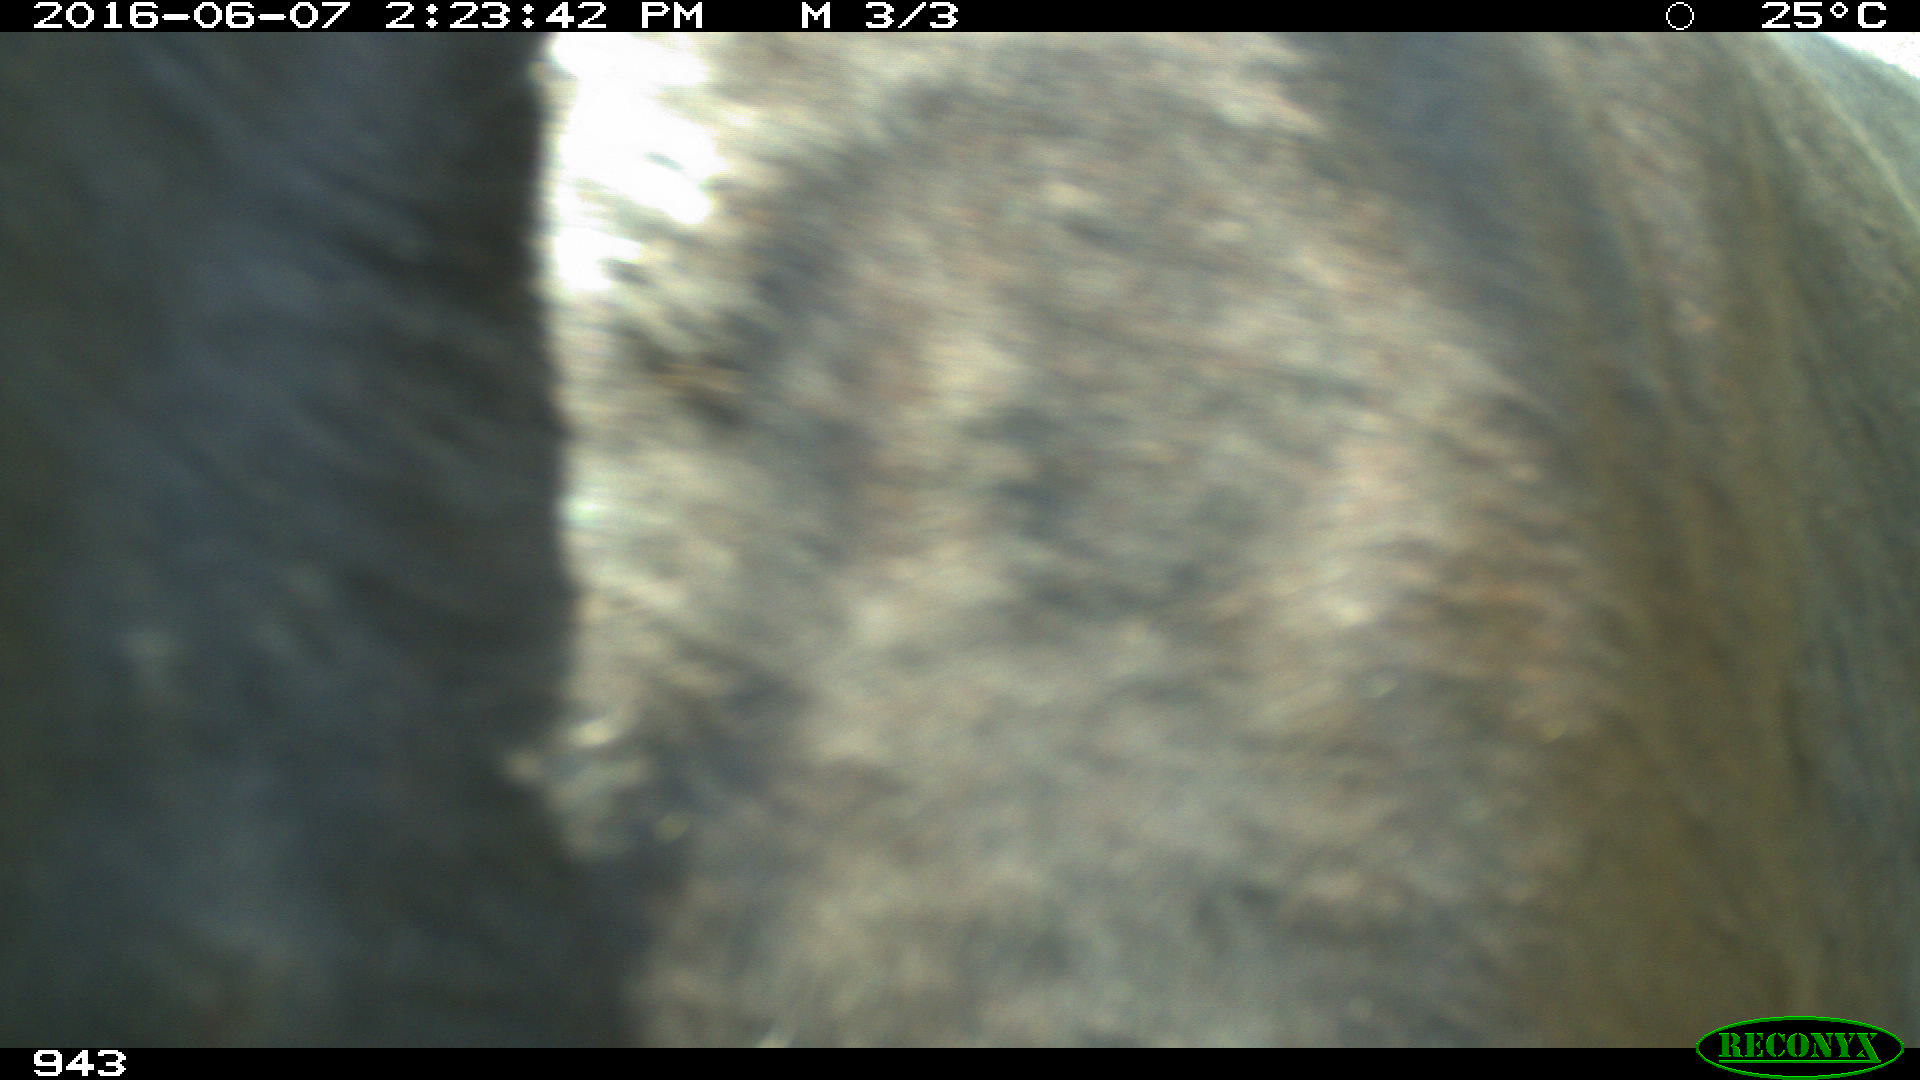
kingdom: Animalia
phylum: Chordata
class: Mammalia
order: Perissodactyla
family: Equidae
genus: Equus
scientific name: Equus caballus
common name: Horse
